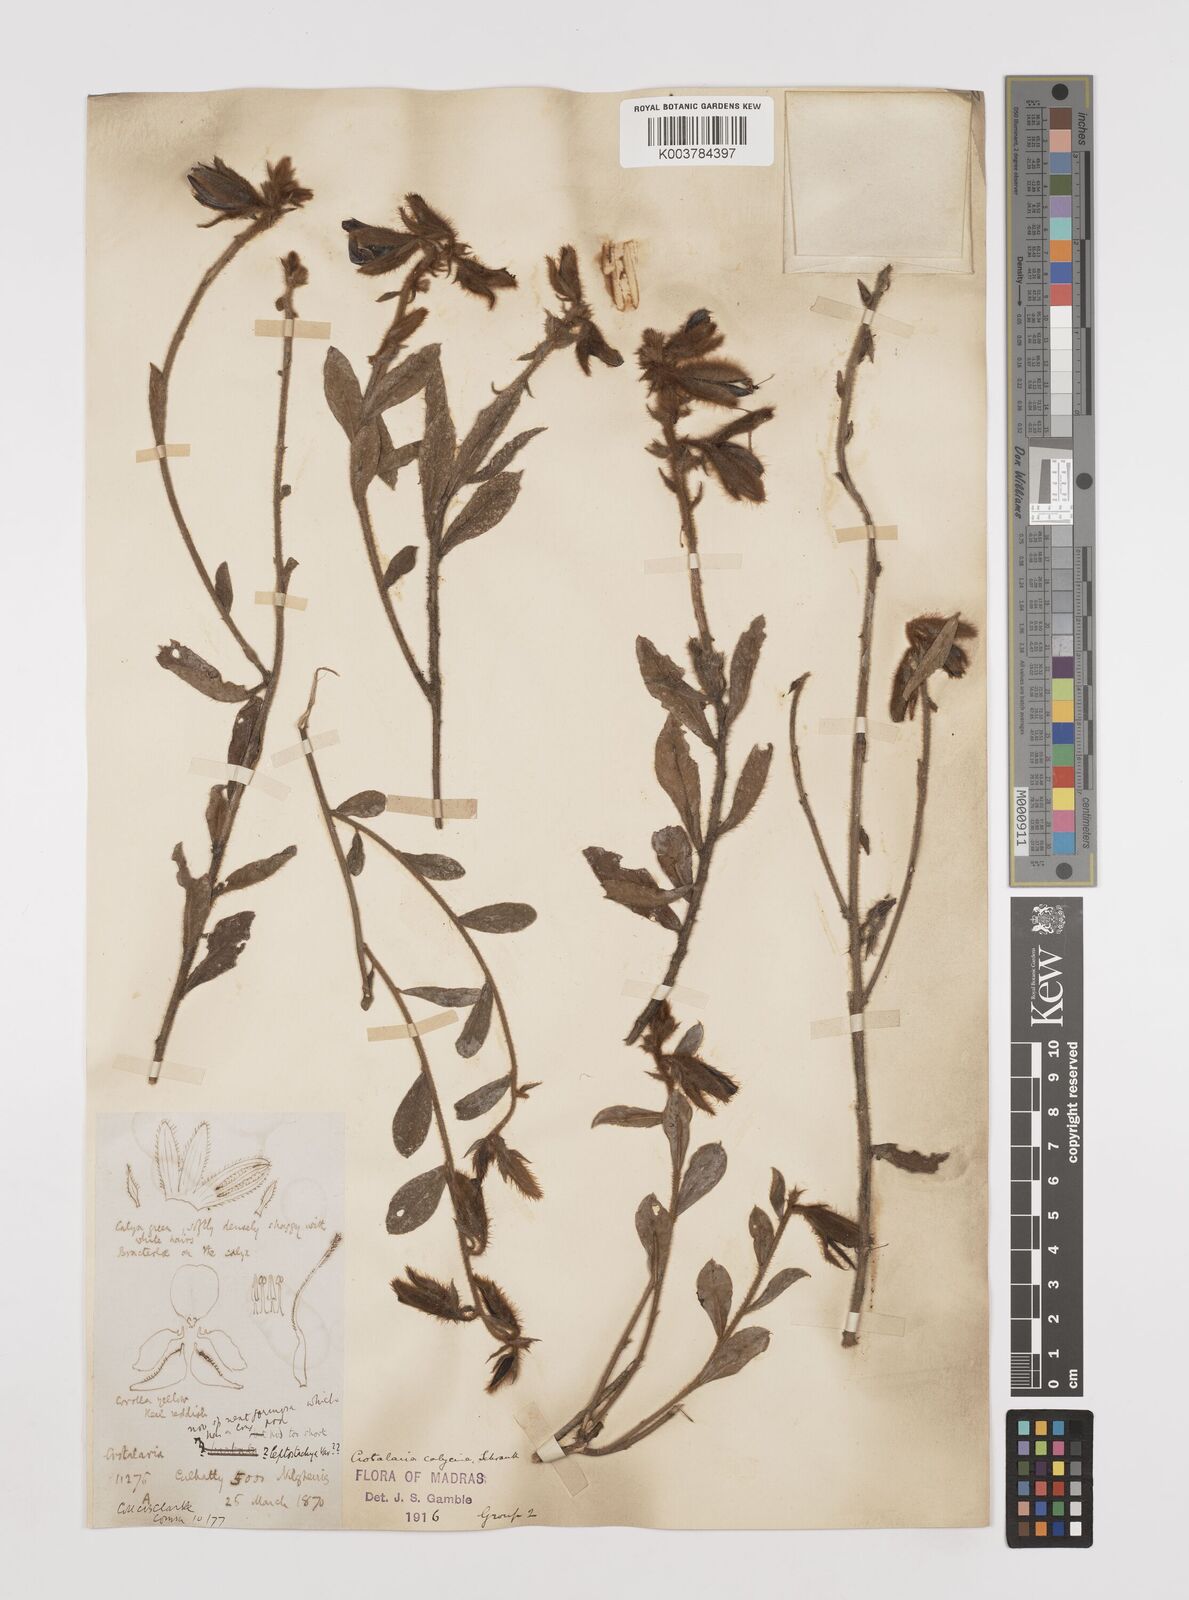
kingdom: Plantae
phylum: Tracheophyta
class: Magnoliopsida
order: Fabales
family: Fabaceae
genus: Crotalaria
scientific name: Crotalaria calycina
